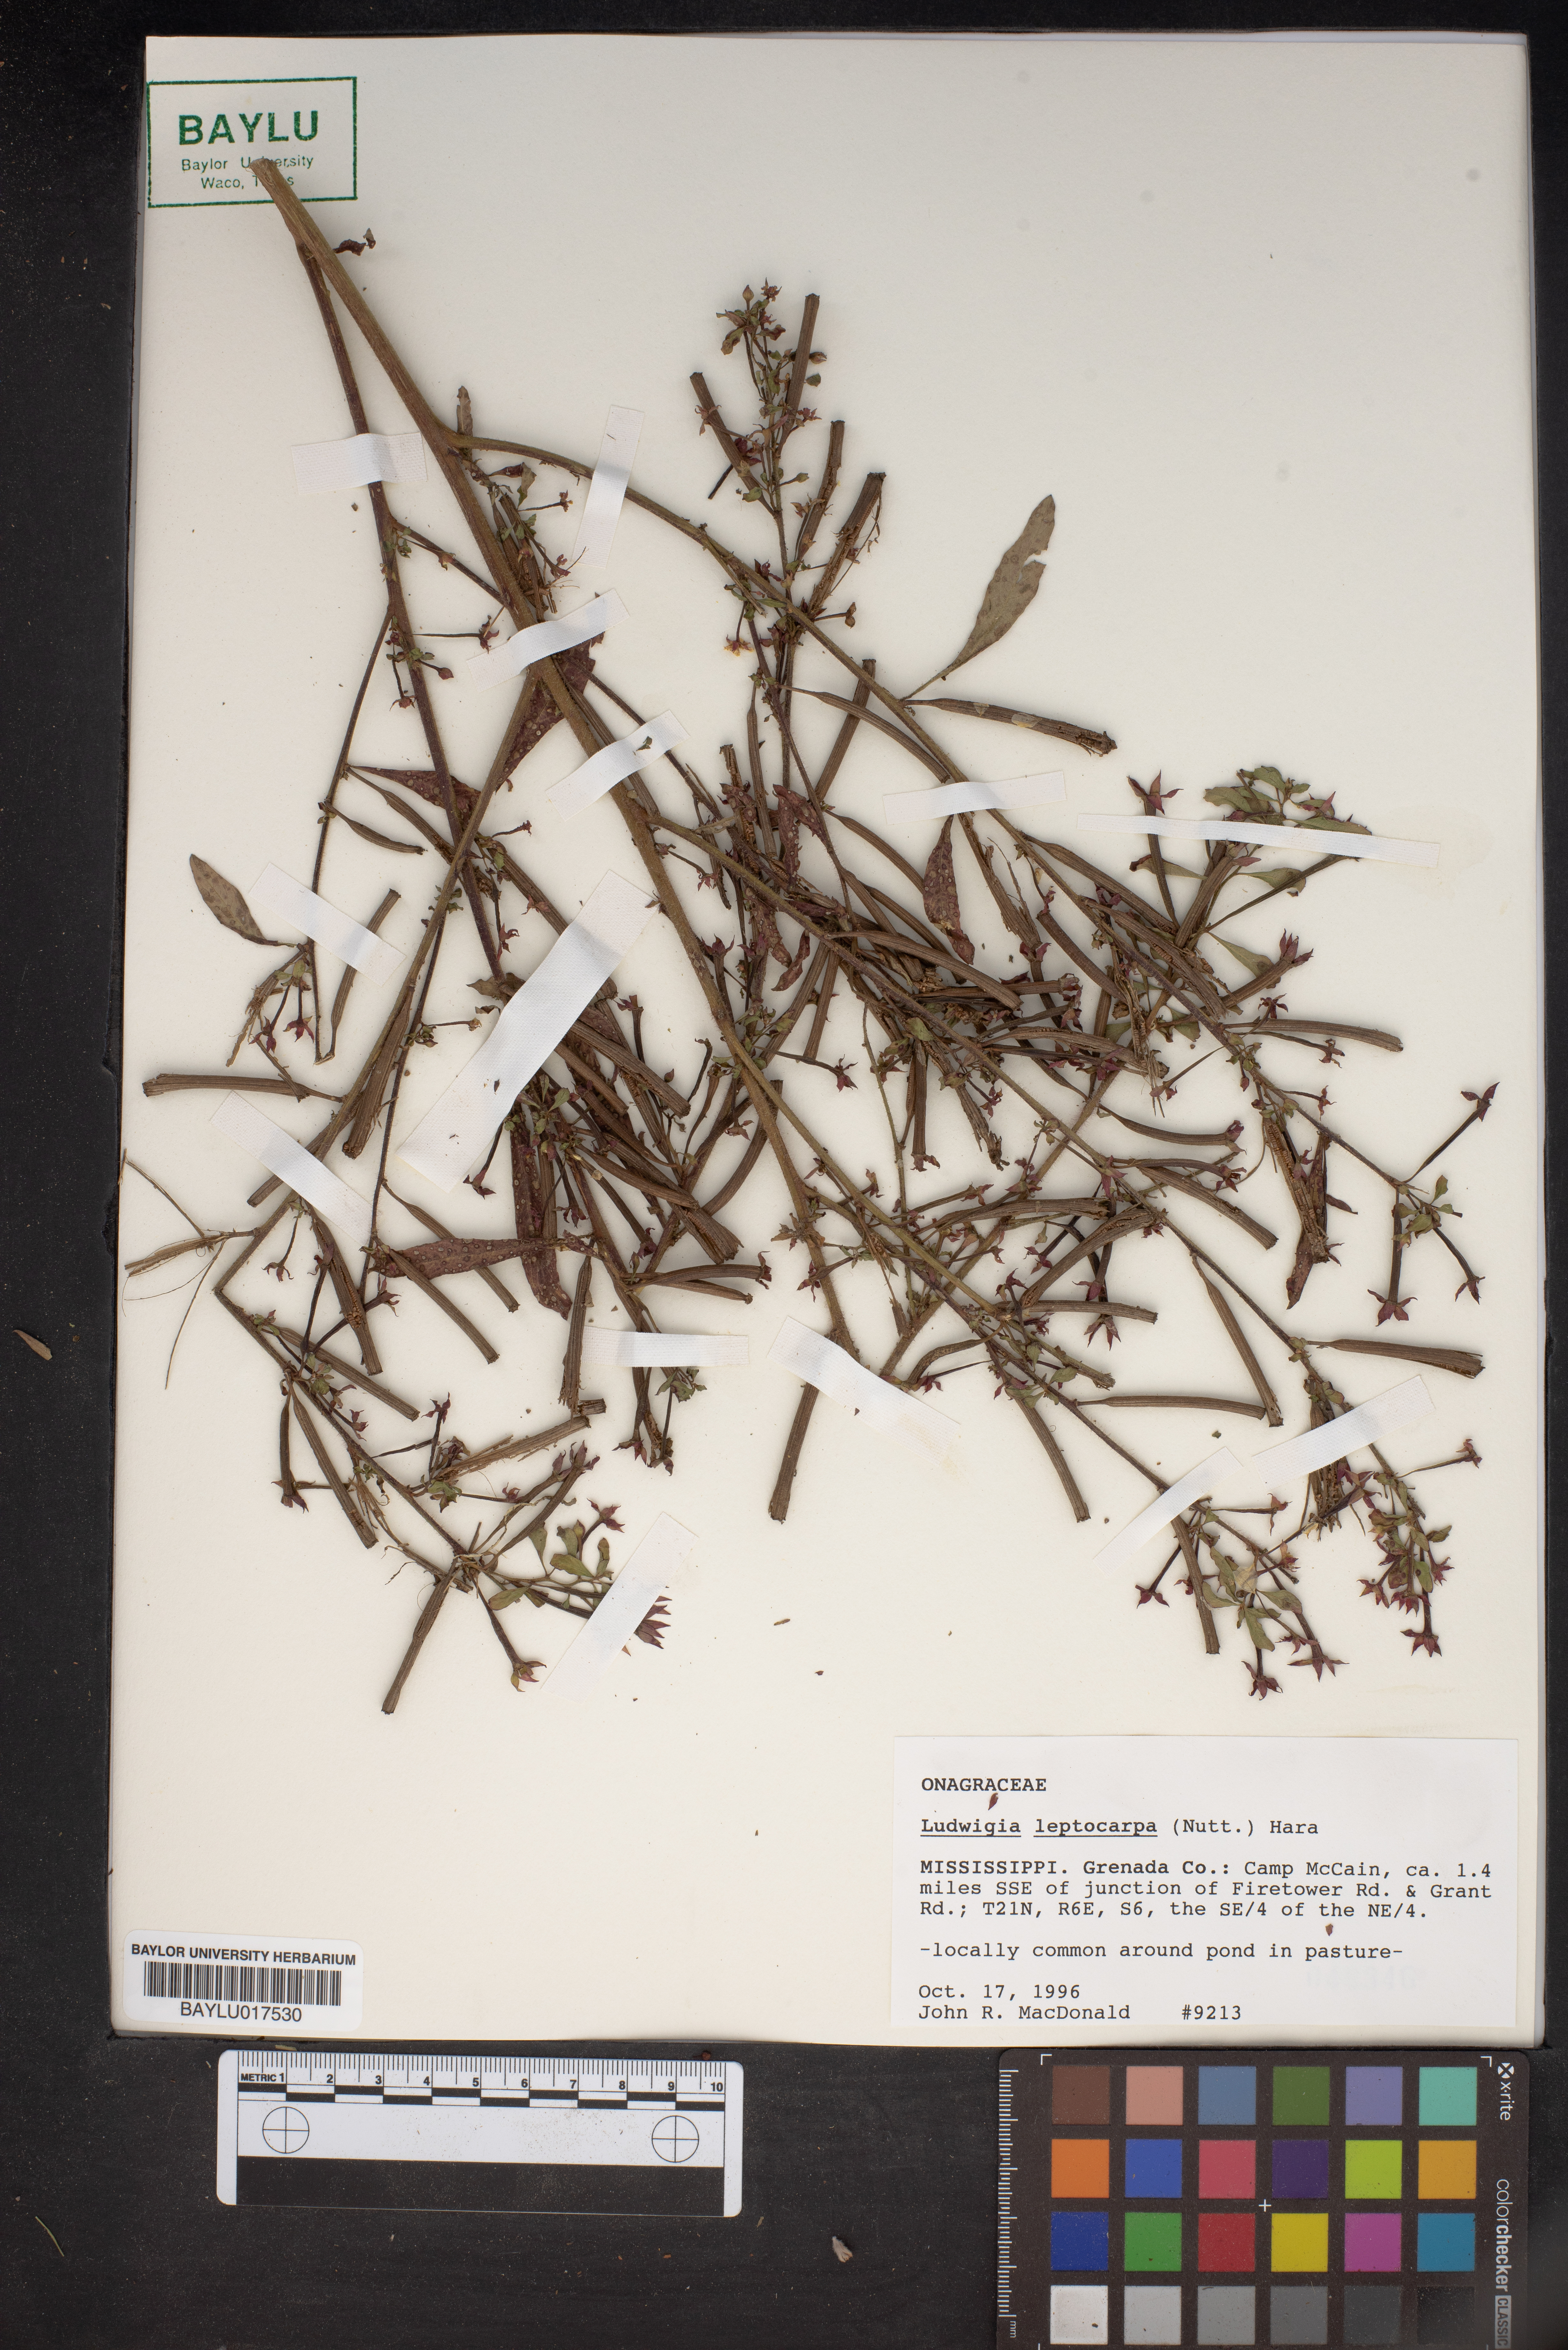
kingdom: Plantae
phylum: Tracheophyta
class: Magnoliopsida
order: Myrtales
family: Onagraceae
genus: Ludwigia
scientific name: Ludwigia leptocarpa
